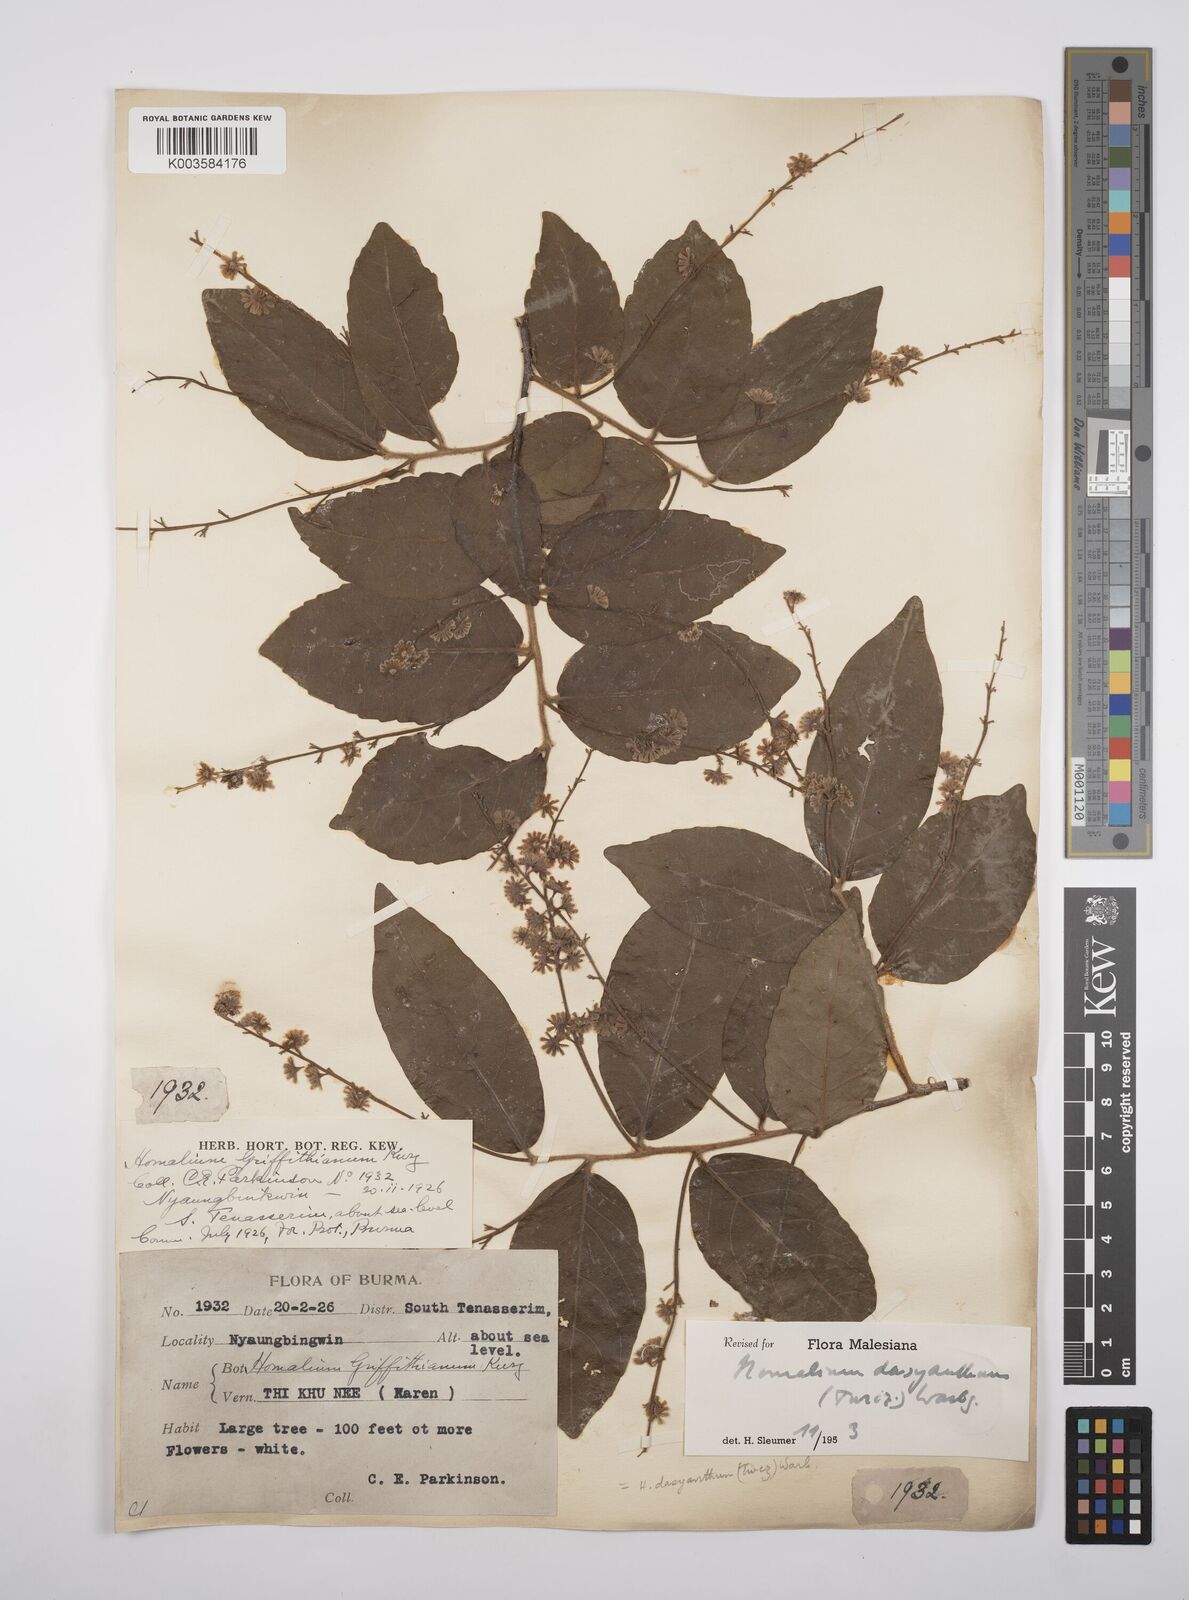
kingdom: Plantae
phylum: Tracheophyta
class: Magnoliopsida
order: Malpighiales
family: Salicaceae
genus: Homalium
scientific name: Homalium dasyanthum
